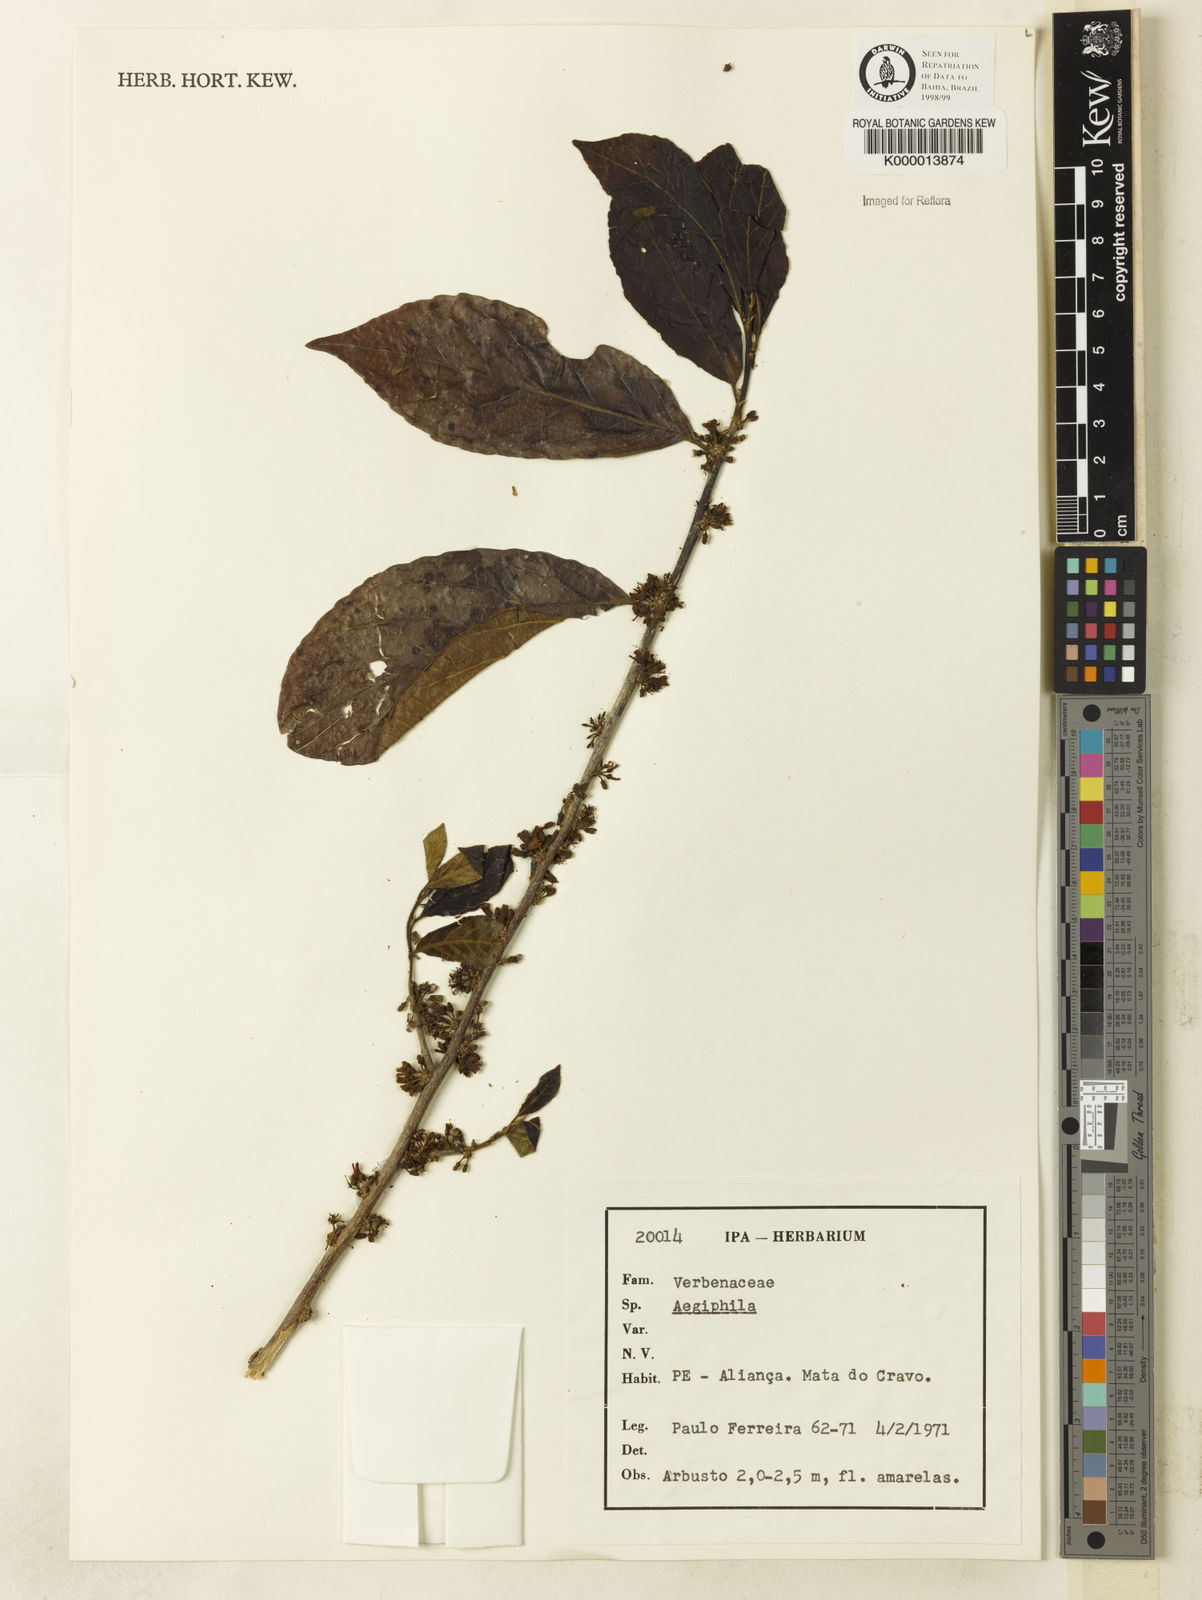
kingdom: Plantae
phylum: Tracheophyta
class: Magnoliopsida
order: Lamiales
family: Lamiaceae
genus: Aegiphila
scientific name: Aegiphila
